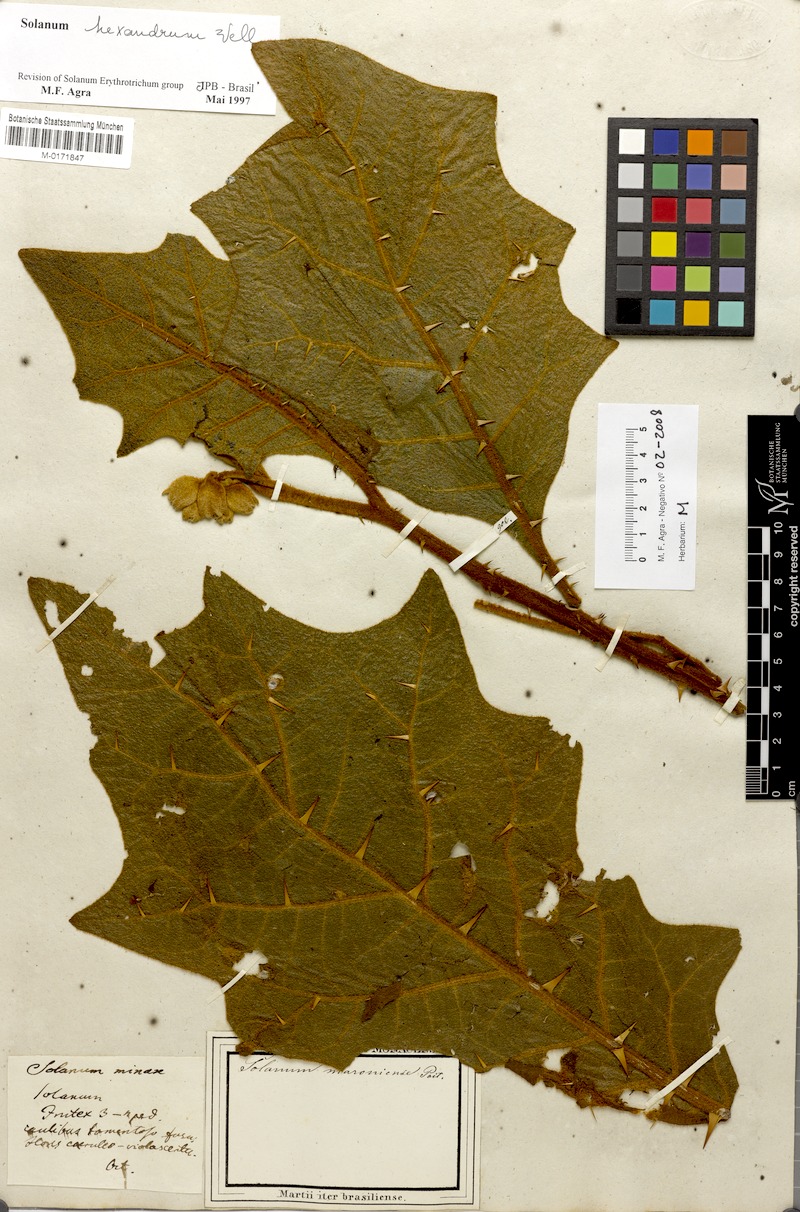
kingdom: Plantae
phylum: Tracheophyta
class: Magnoliopsida
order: Solanales
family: Solanaceae
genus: Solanum
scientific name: Solanum hexandrum
